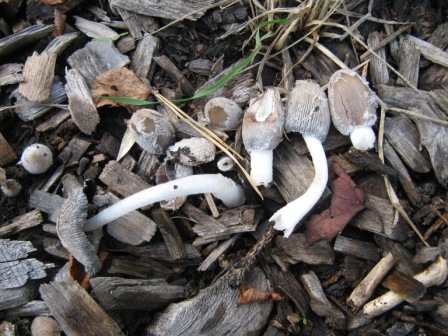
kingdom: Fungi
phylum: Basidiomycota
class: Agaricomycetes
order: Agaricales
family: Psathyrellaceae
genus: Coprinopsis
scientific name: Coprinopsis lagopus
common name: dunstokket blækhat
